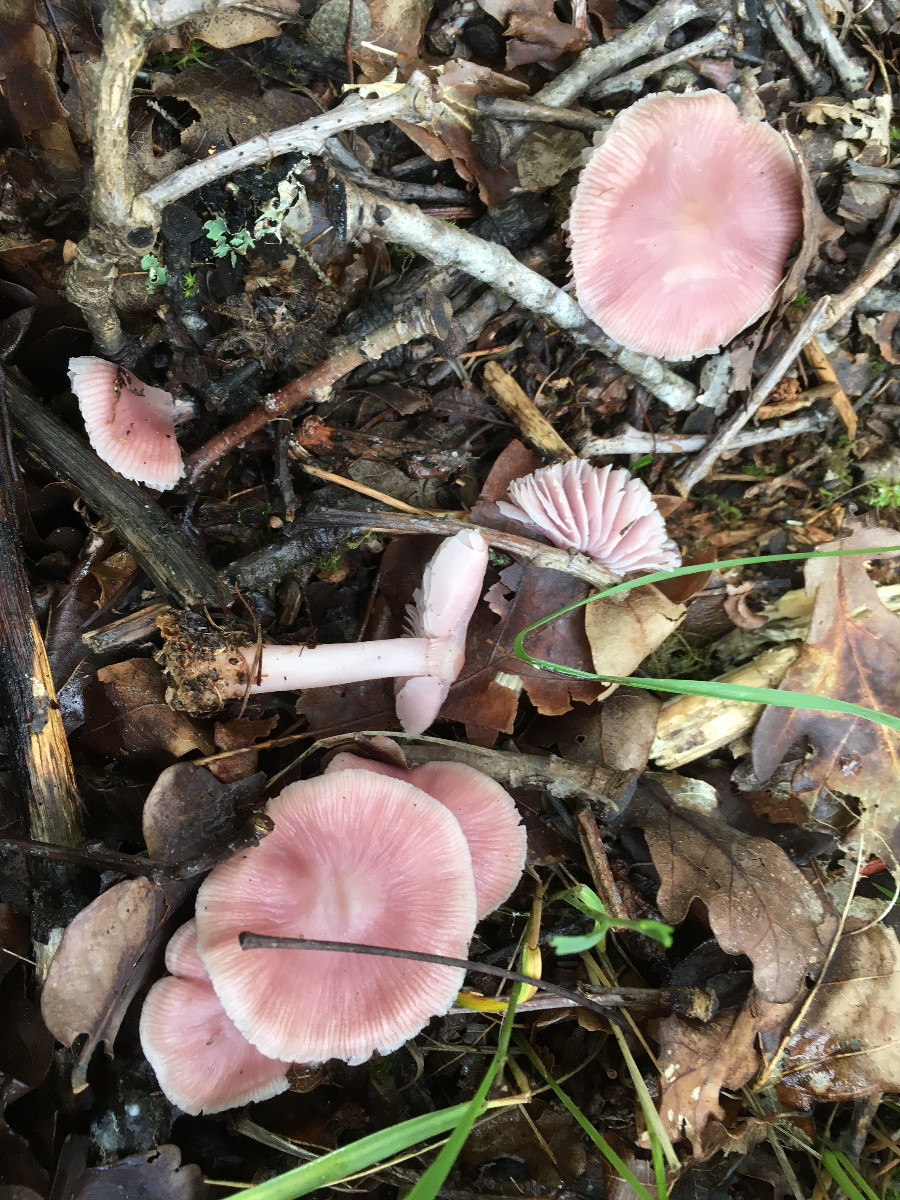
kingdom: Fungi
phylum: Basidiomycota
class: Agaricomycetes
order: Agaricales
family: Mycenaceae
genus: Mycena
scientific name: Mycena rosea
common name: rosa huesvamp
